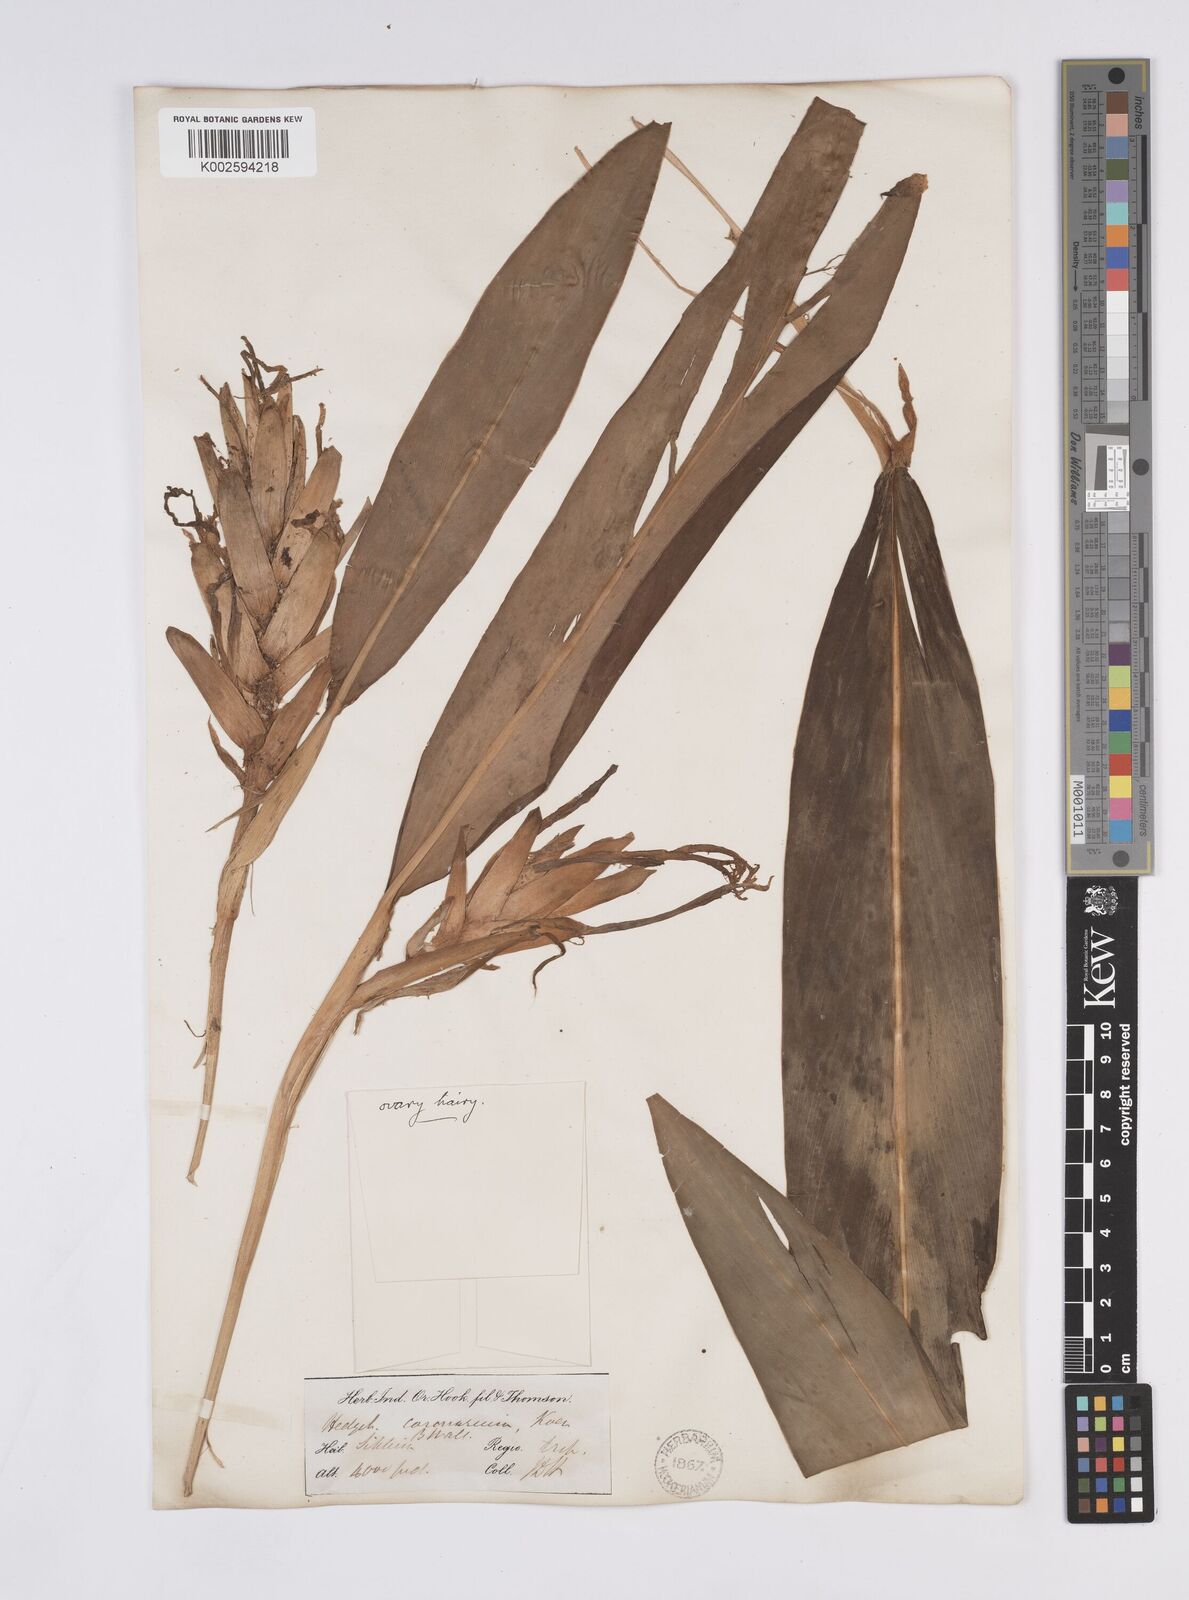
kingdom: Plantae
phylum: Tracheophyta
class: Liliopsida
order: Zingiberales
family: Zingiberaceae
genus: Hedychium
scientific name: Hedychium coronarium
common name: White garland-lily
